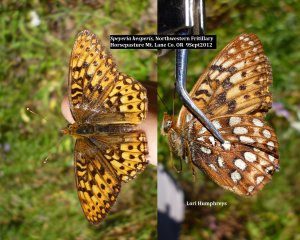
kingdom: Animalia
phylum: Arthropoda
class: Insecta
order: Lepidoptera
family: Nymphalidae
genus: Speyeria
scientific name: Speyeria atlantis
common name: Northwestern Fritillary
